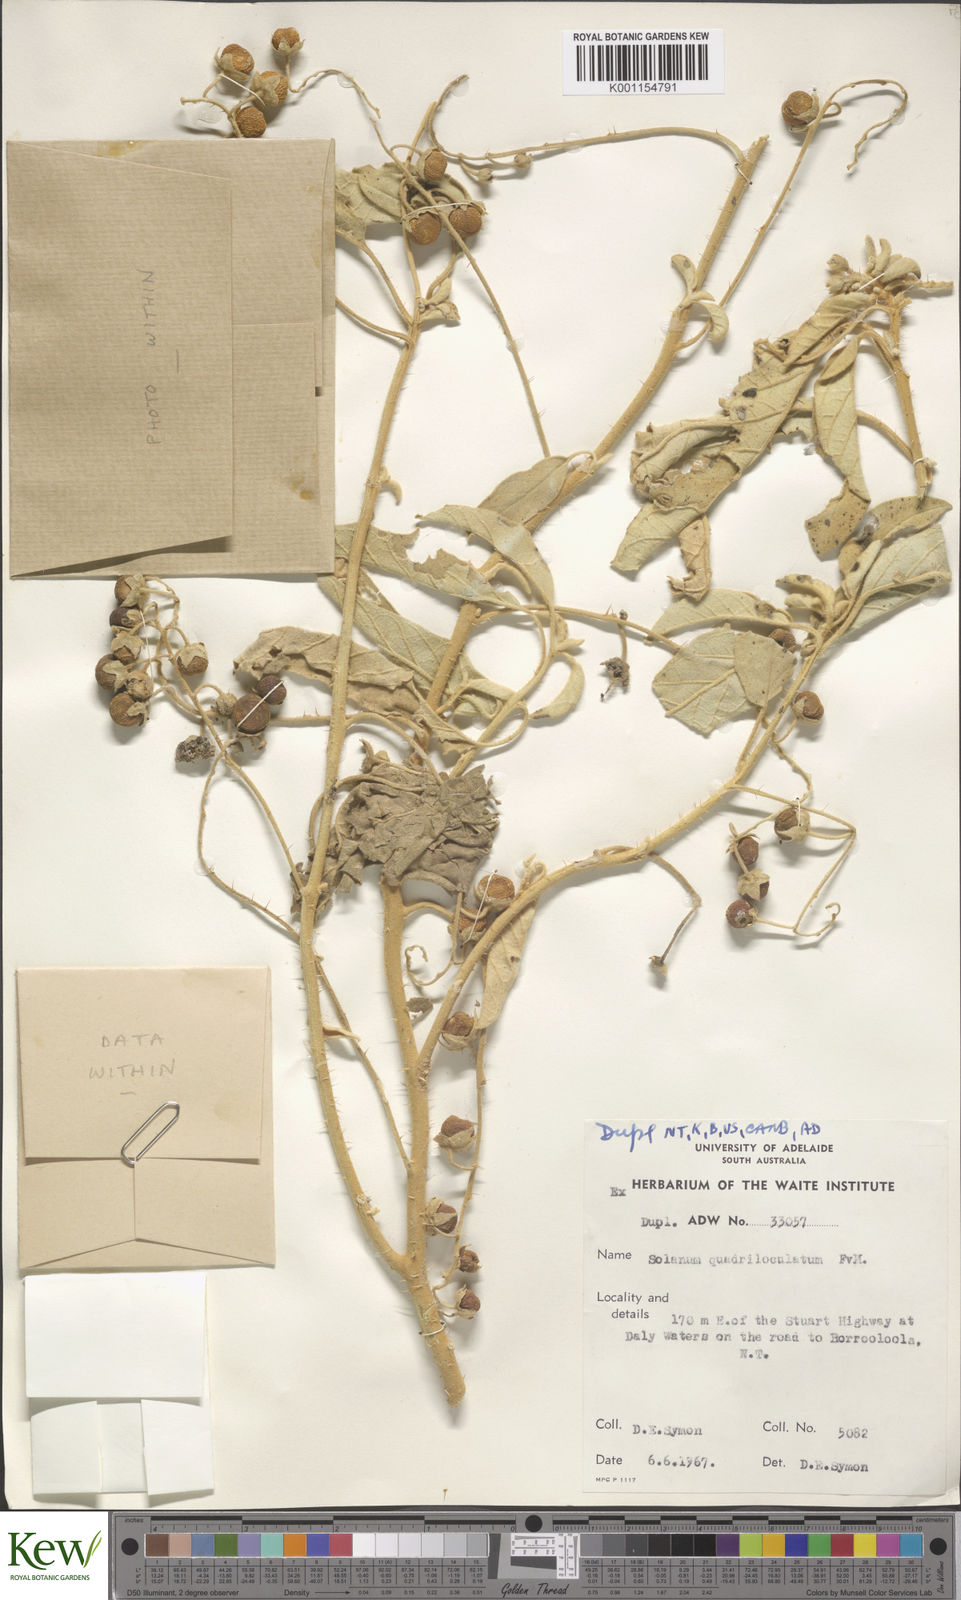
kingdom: Plantae
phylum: Tracheophyta
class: Magnoliopsida
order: Solanales
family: Solanaceae
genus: Solanum
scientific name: Solanum quadriloculatum
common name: Wild tomato
